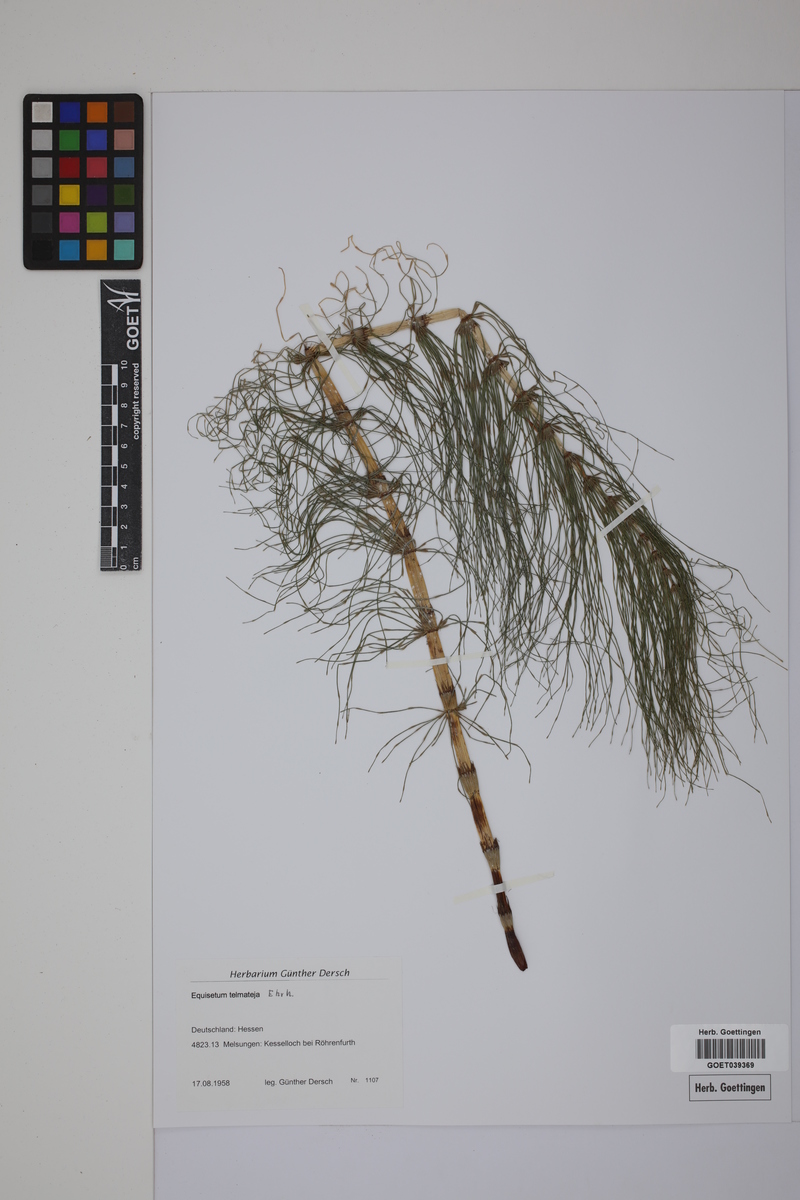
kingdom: Plantae
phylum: Tracheophyta
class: Polypodiopsida
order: Equisetales
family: Equisetaceae
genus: Equisetum
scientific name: Equisetum telmateia
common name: Great horsetail
